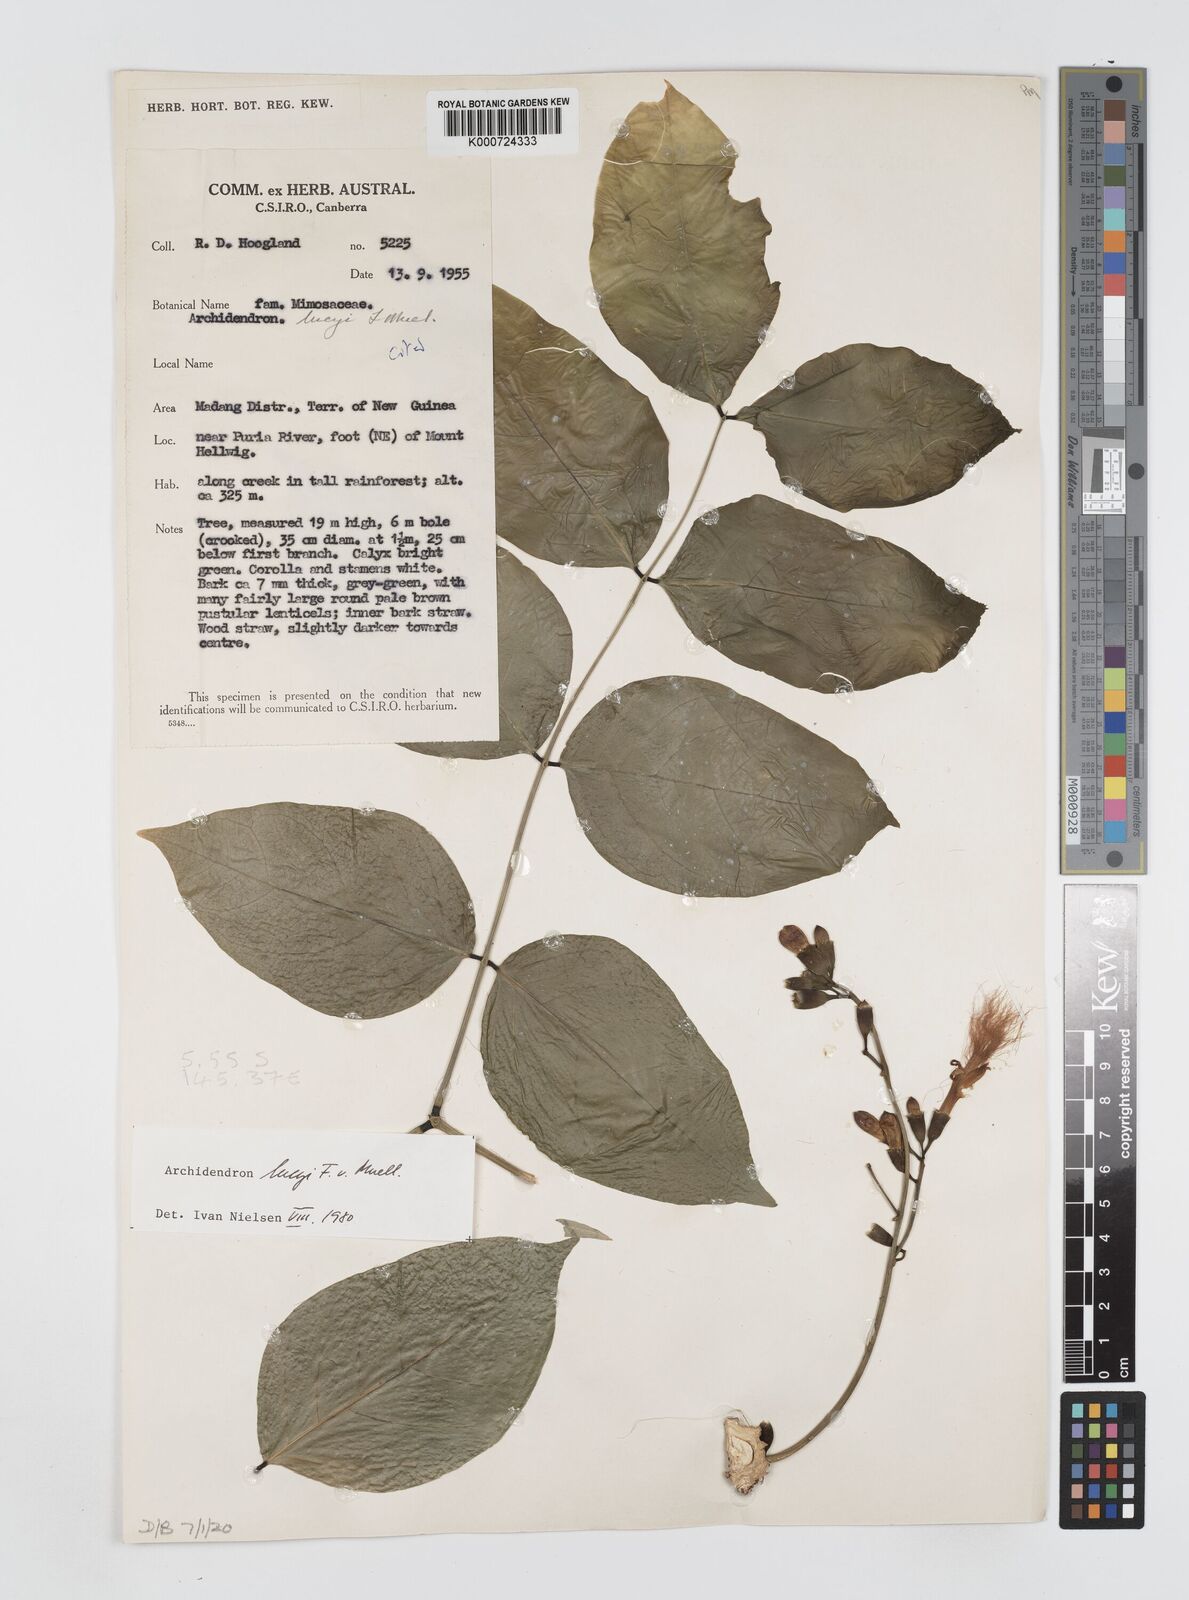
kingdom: Plantae
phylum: Tracheophyta
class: Magnoliopsida
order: Fabales
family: Fabaceae
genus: Archidendron
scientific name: Archidendron lucyi
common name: Scarlet bean
